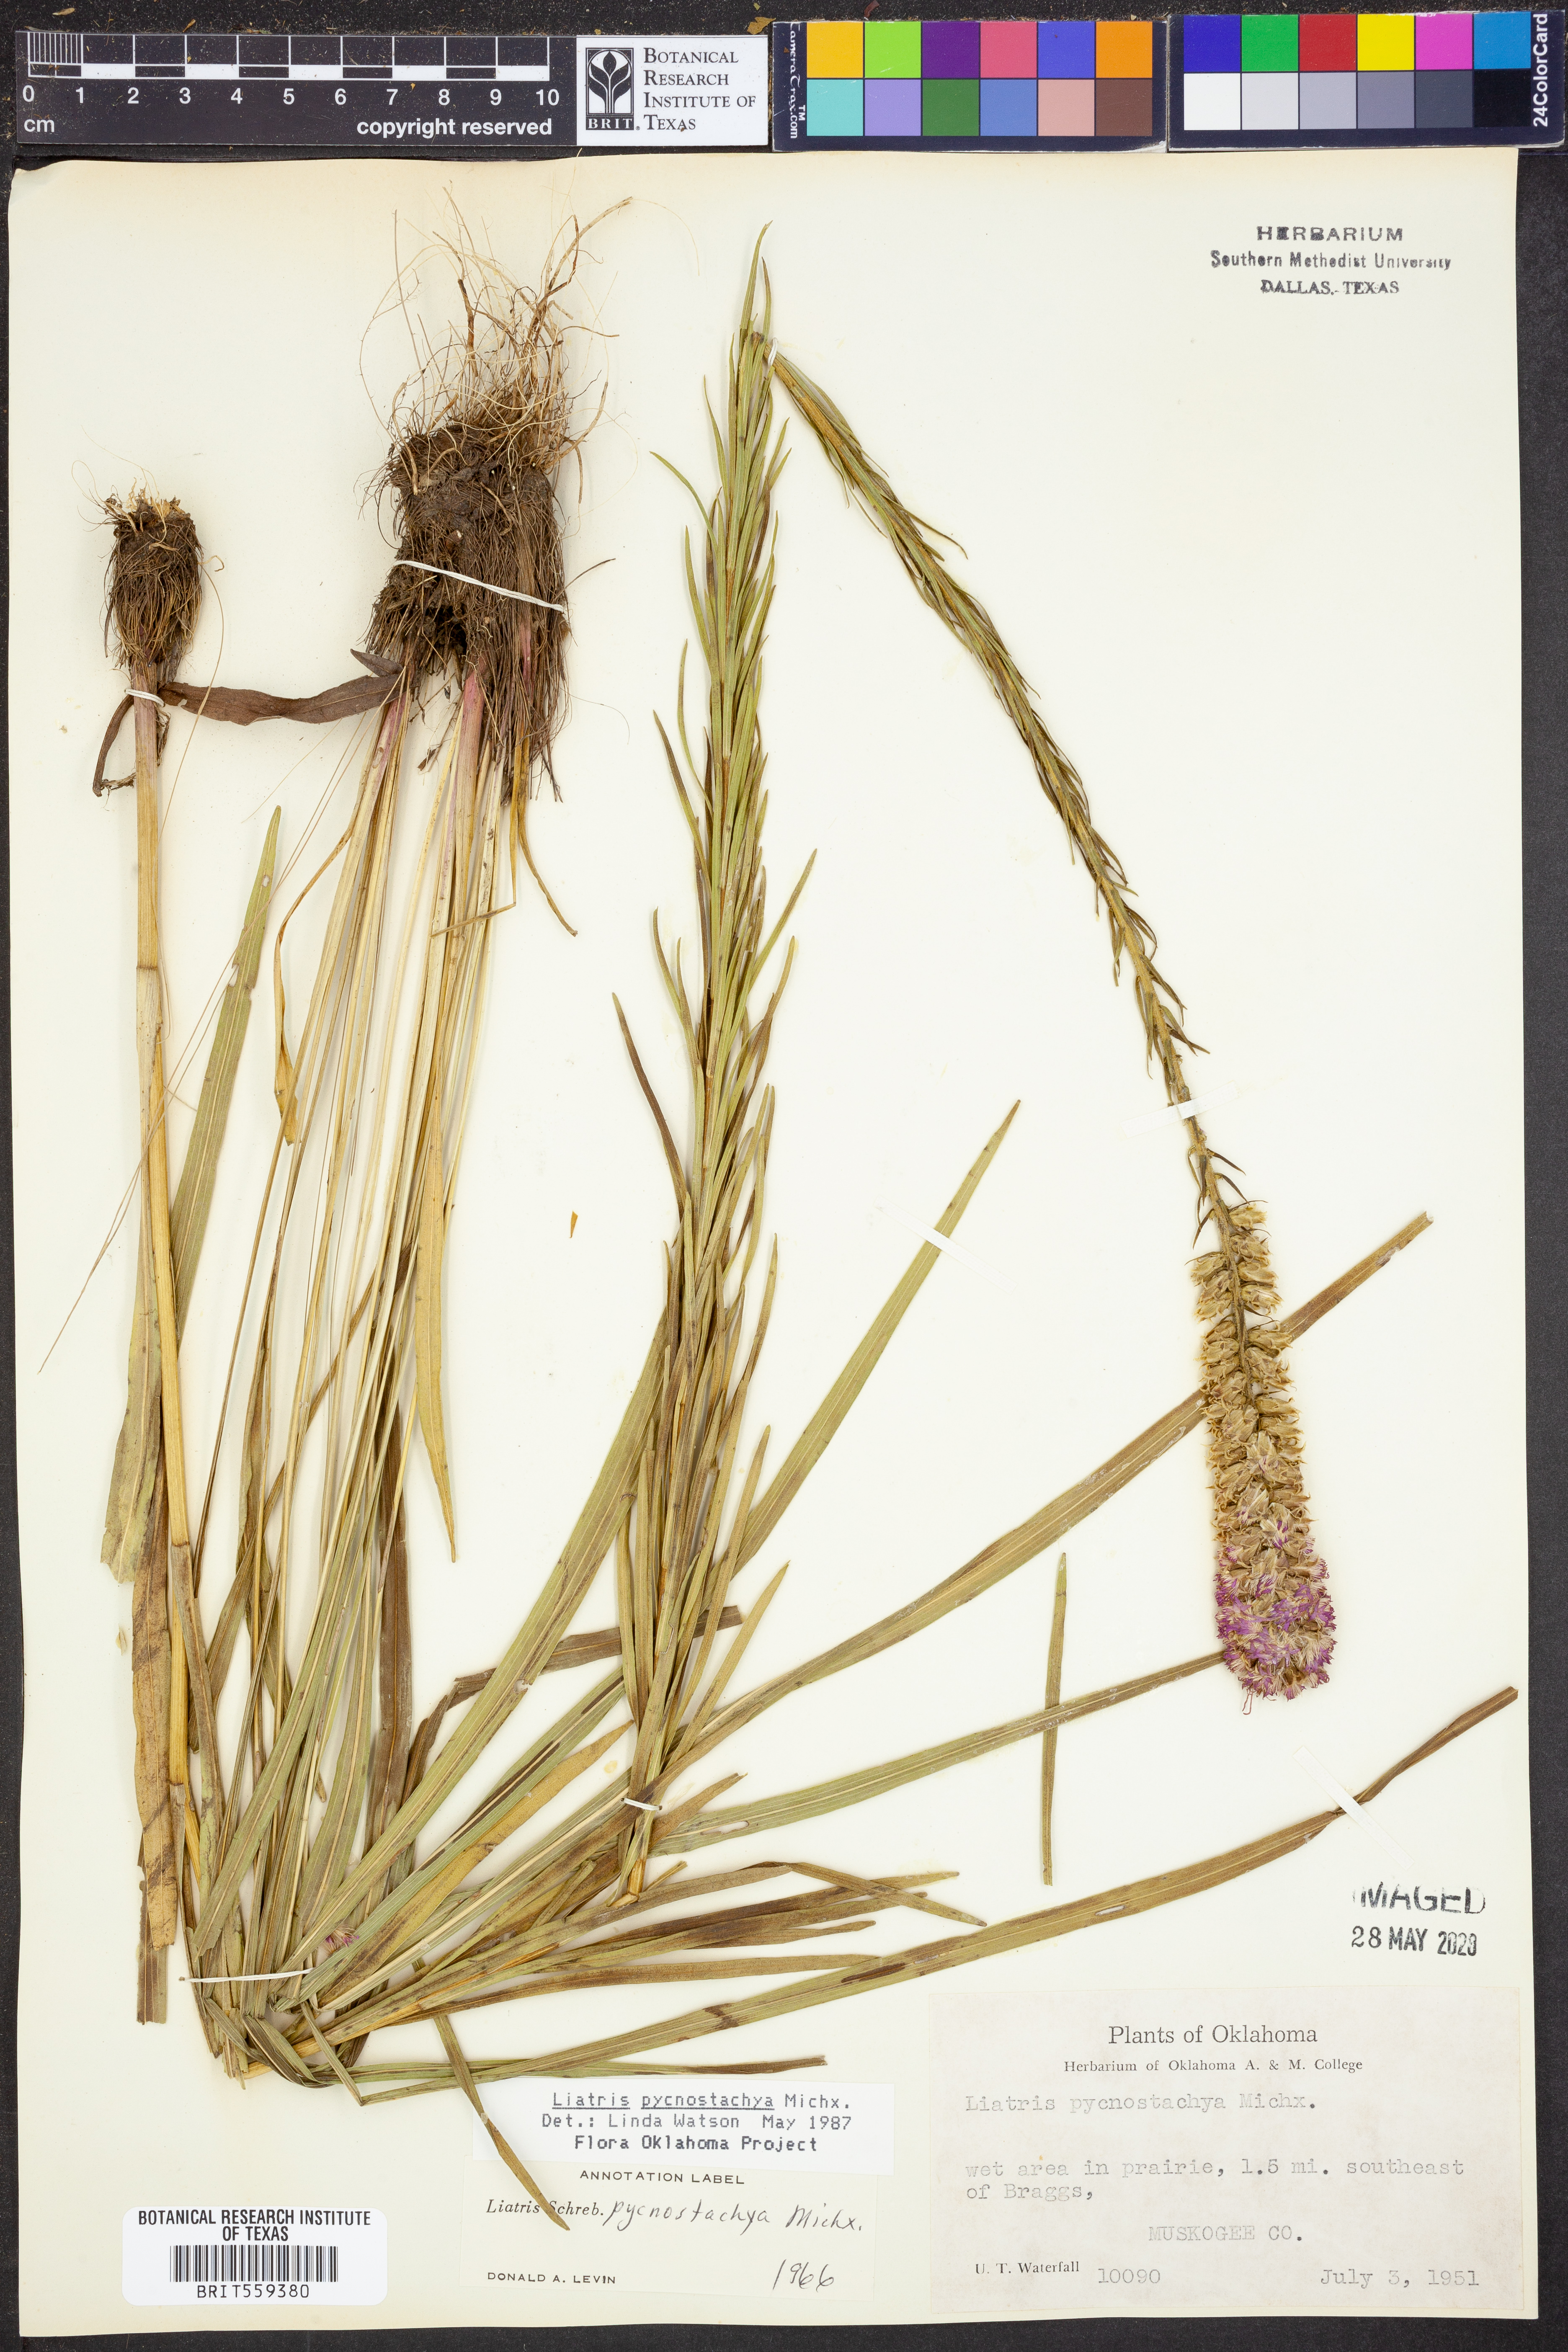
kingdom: Plantae
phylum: Tracheophyta
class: Magnoliopsida
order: Asterales
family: Asteraceae
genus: Liatris
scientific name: Liatris pycnostachya
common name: Cattail gayfeather
